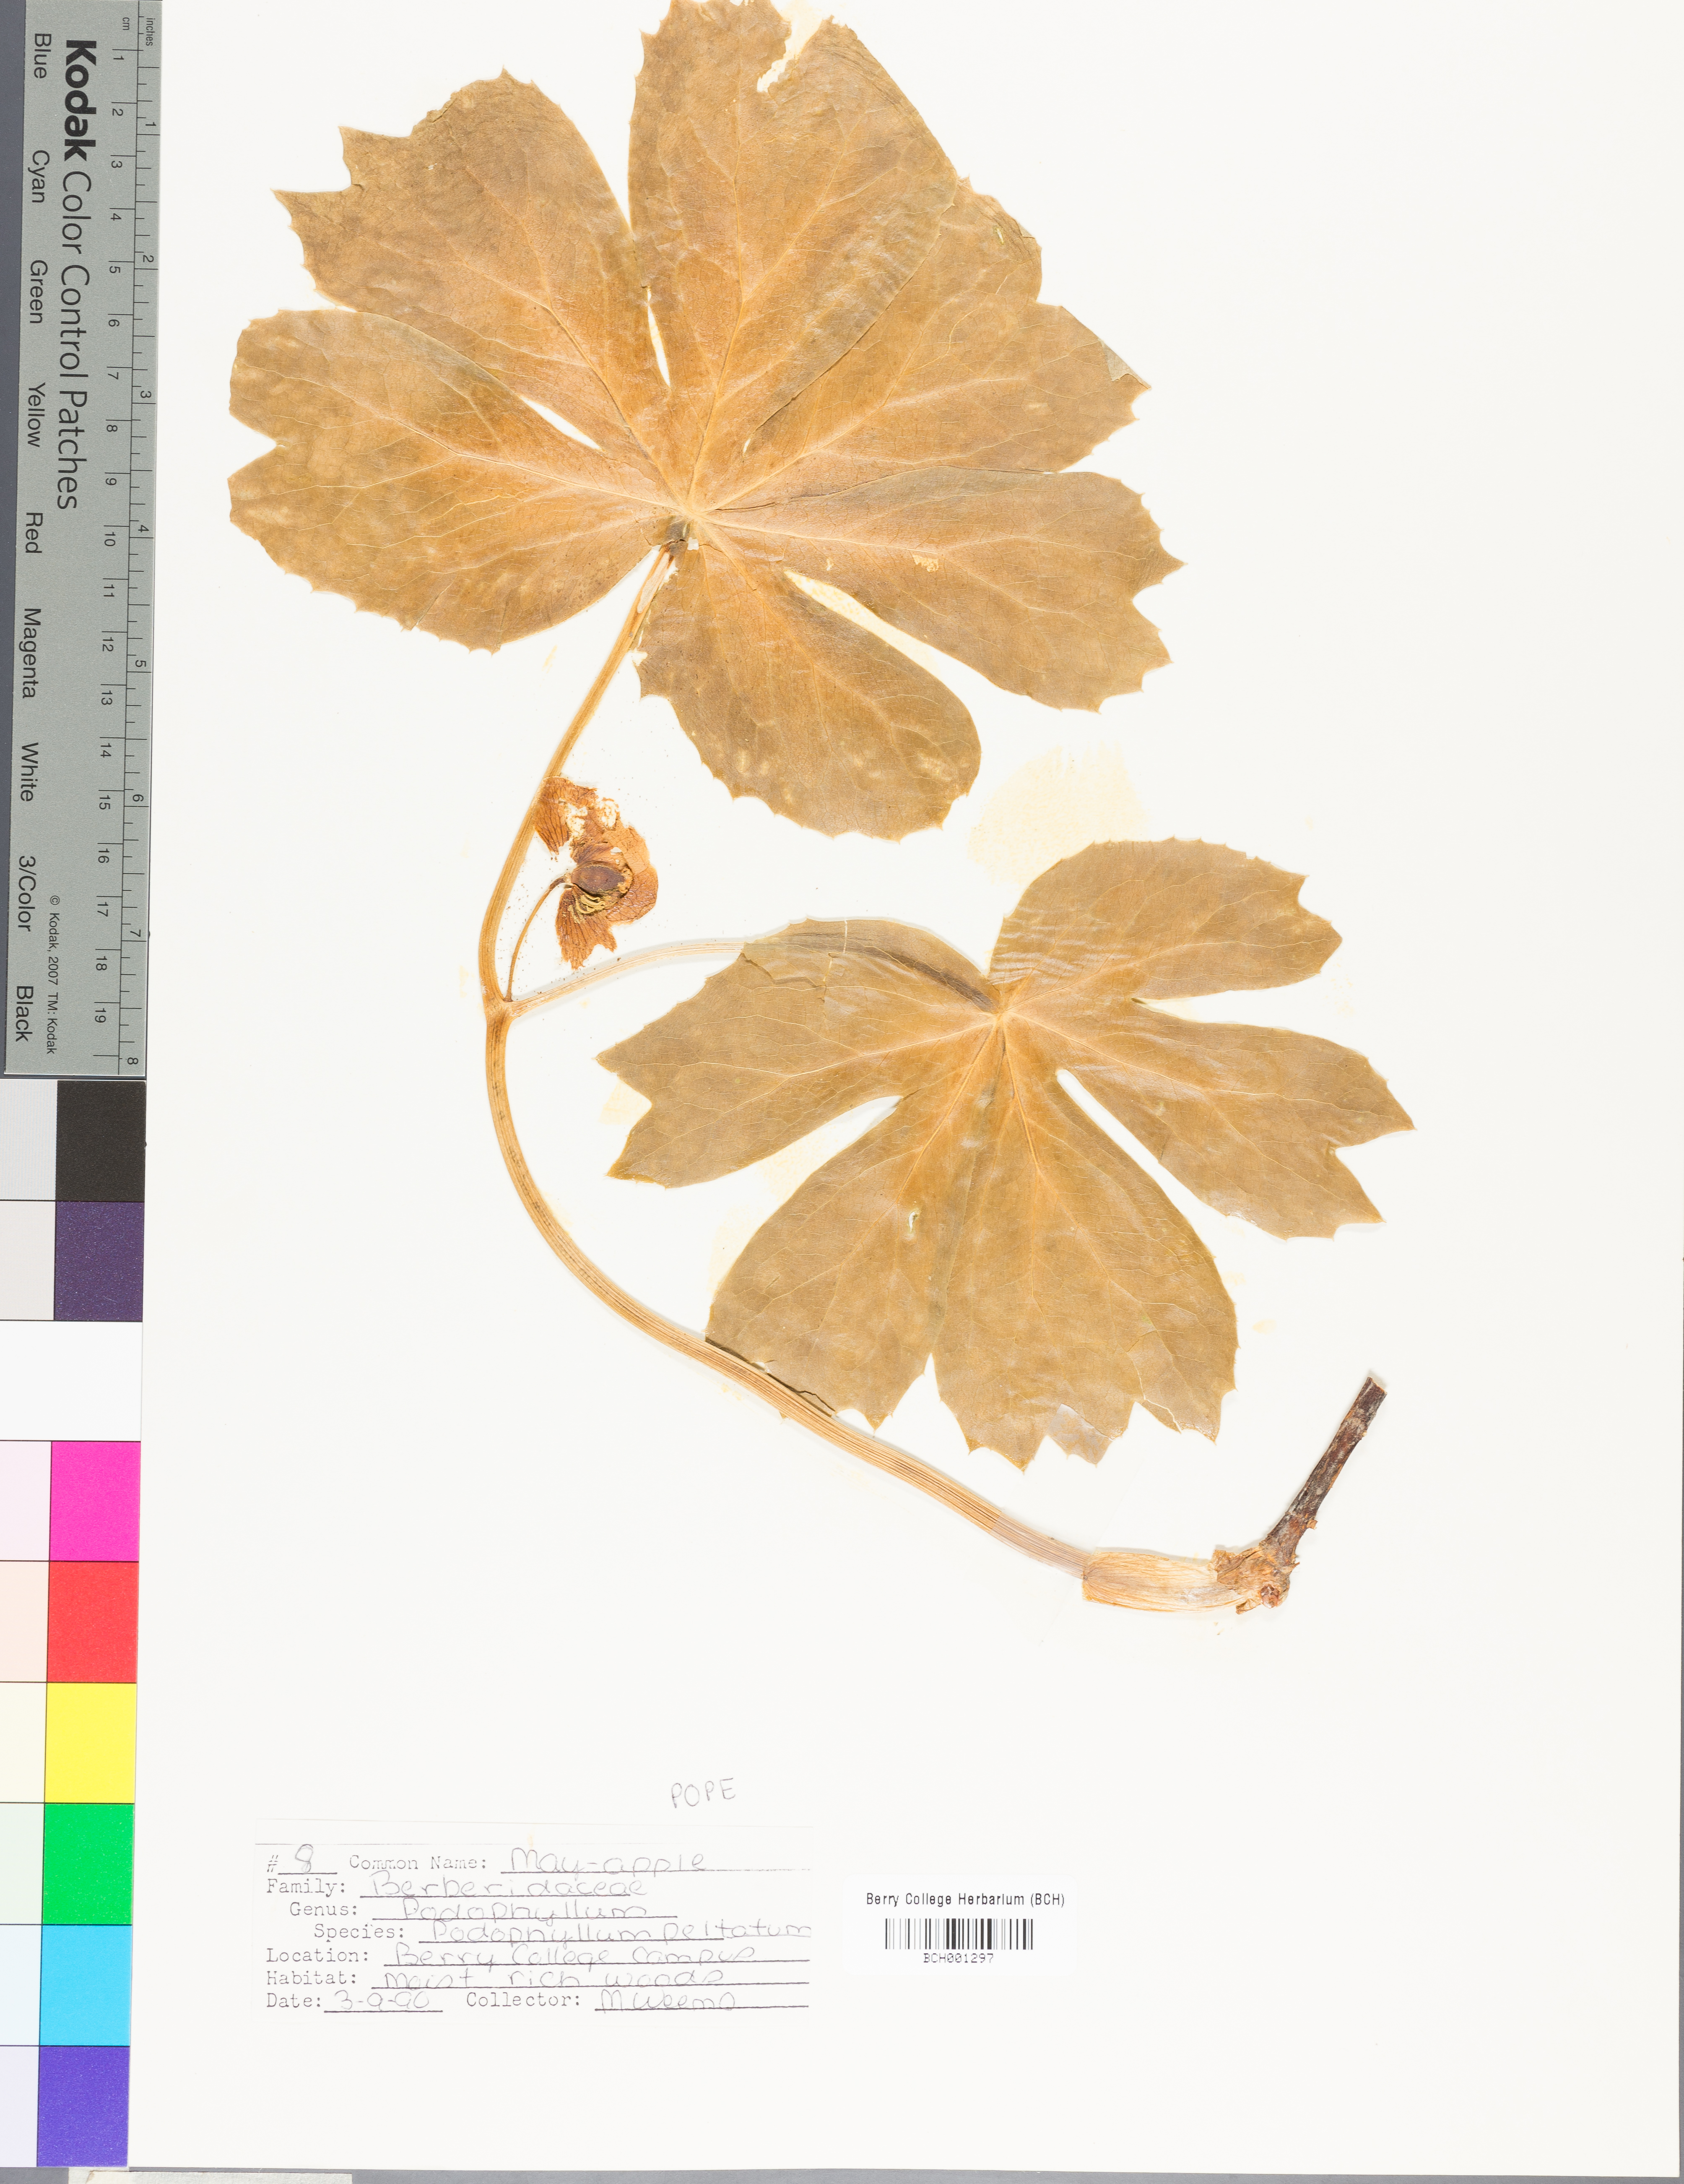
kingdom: Plantae
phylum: Tracheophyta
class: Magnoliopsida
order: Ranunculales
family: Berberidaceae
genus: Podophyllum
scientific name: Podophyllum peltatum
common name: Wild mandrake
